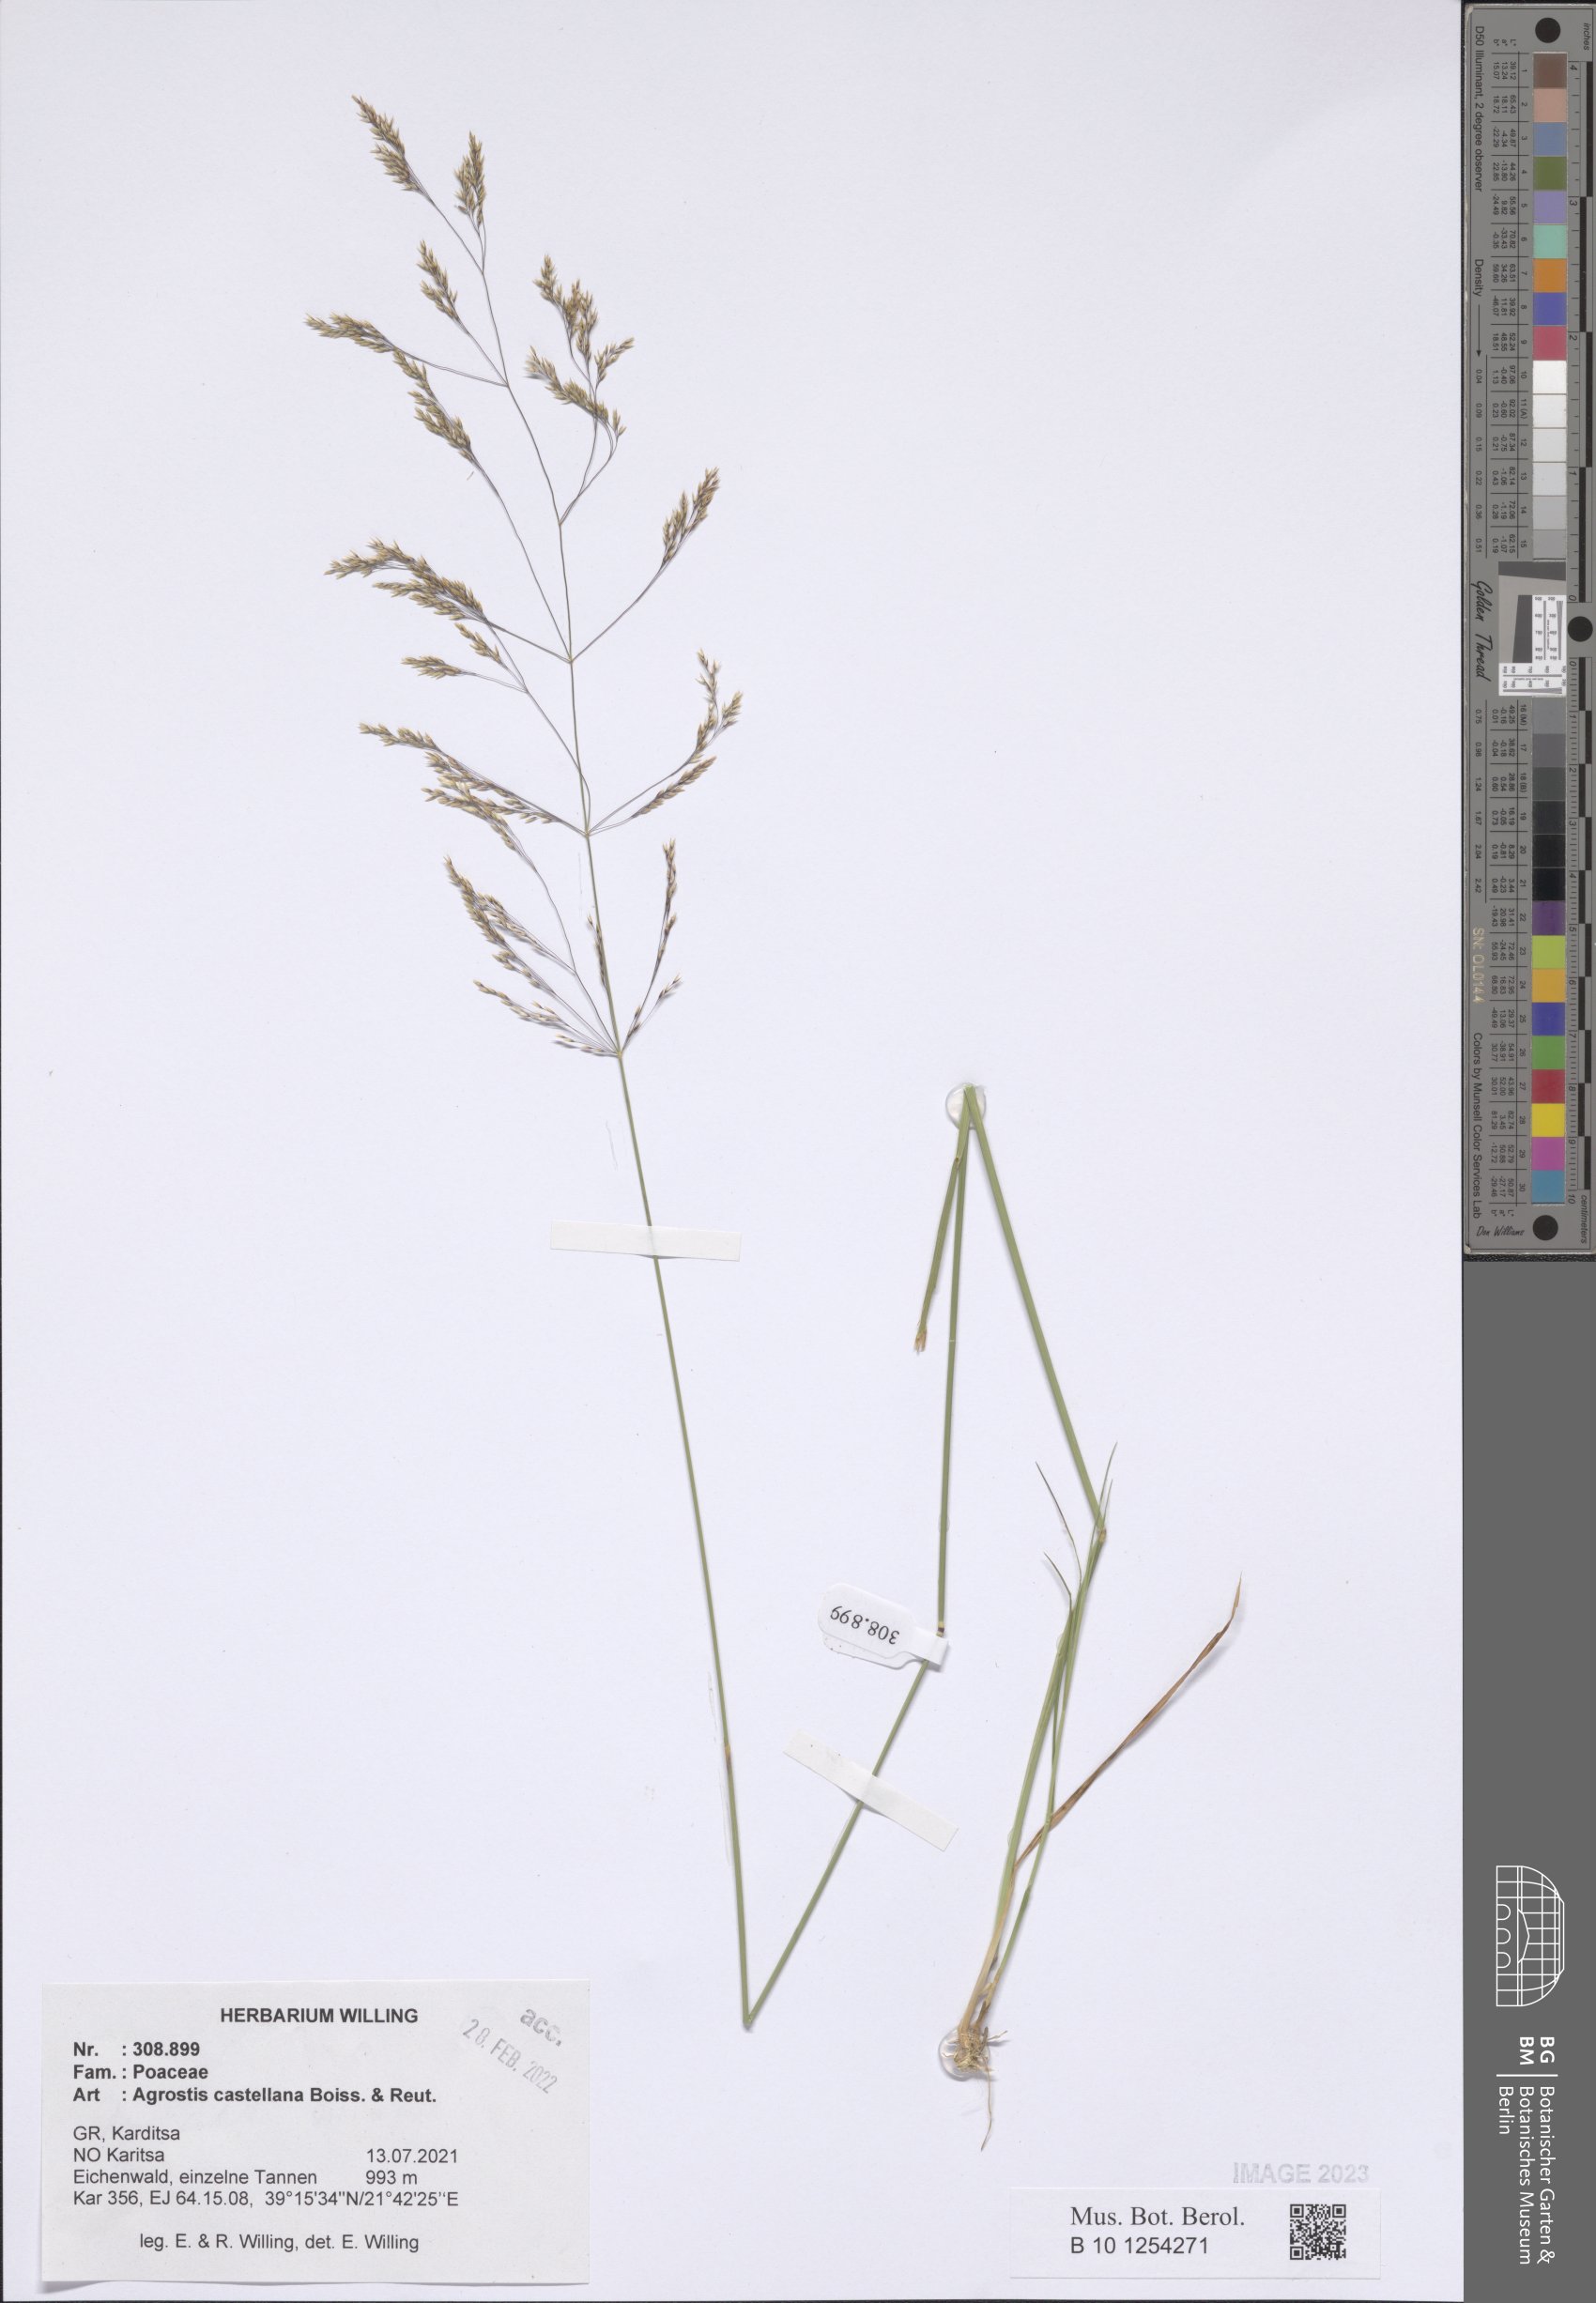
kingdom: Plantae
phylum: Tracheophyta
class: Liliopsida
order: Poales
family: Poaceae
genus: Agrostis
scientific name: Agrostis castellana
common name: Highland bent
